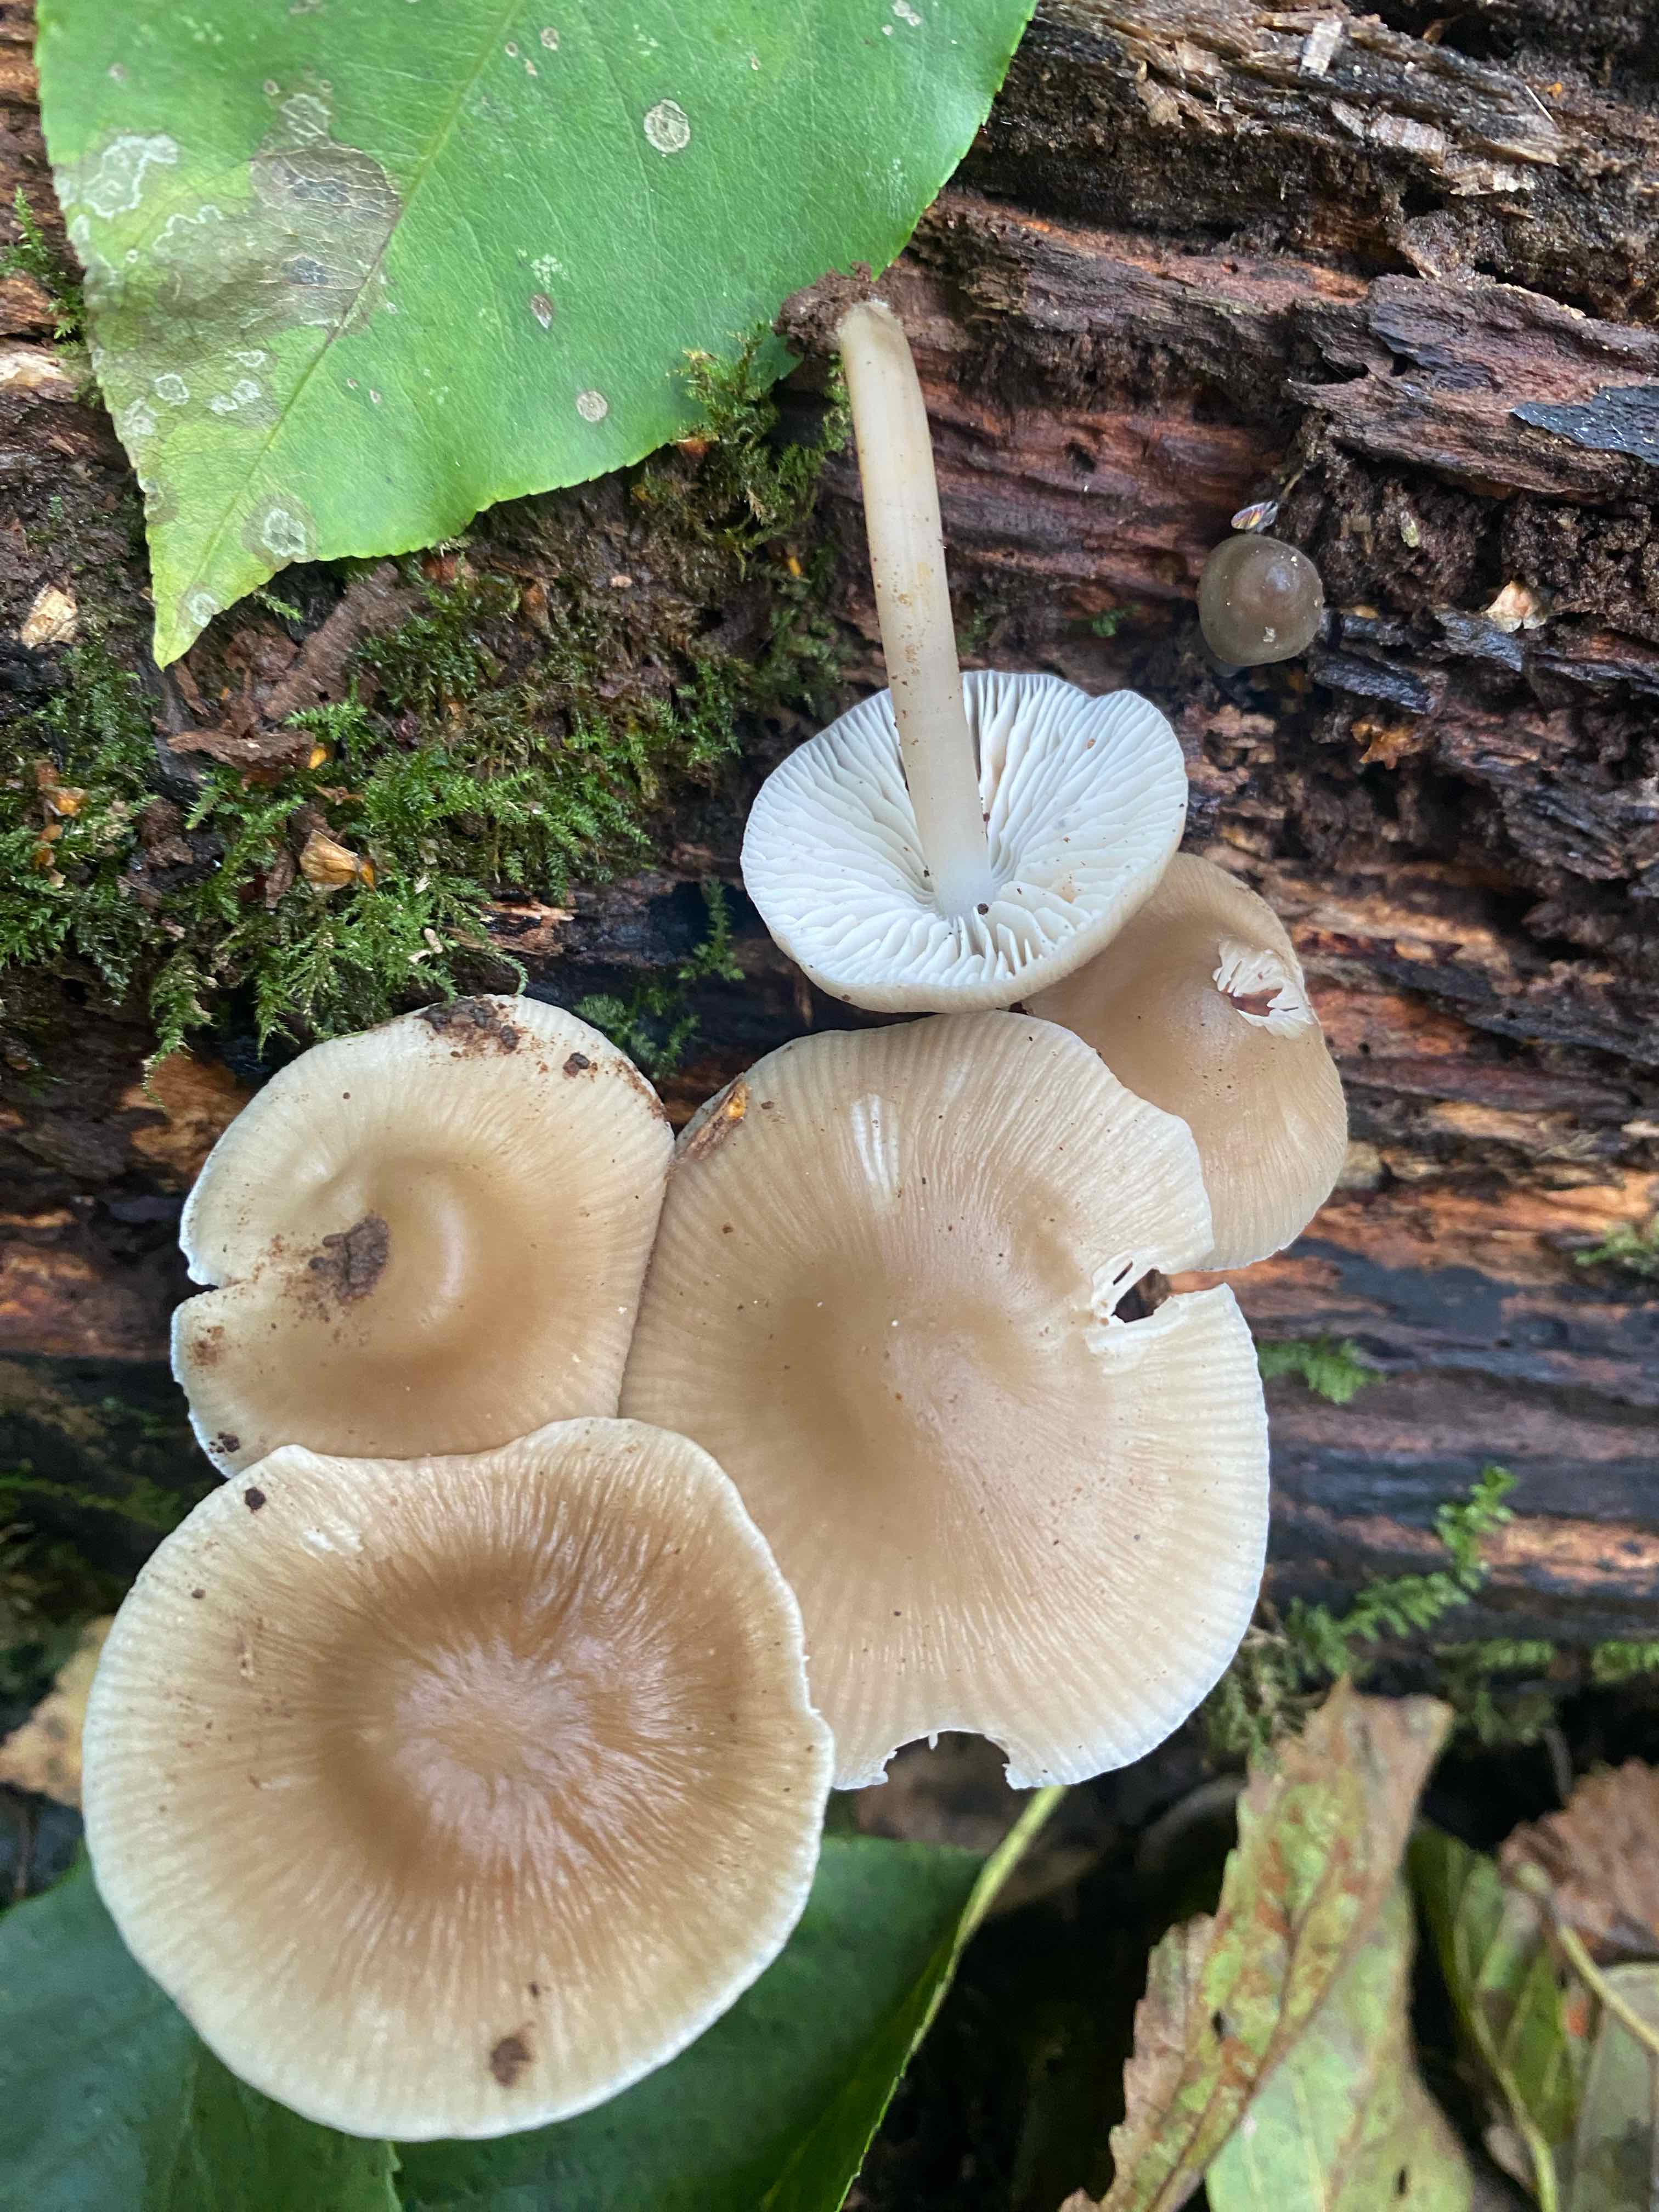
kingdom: Fungi
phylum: Basidiomycota
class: Agaricomycetes
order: Agaricales
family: Mycenaceae
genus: Mycena
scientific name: Mycena galericulata
